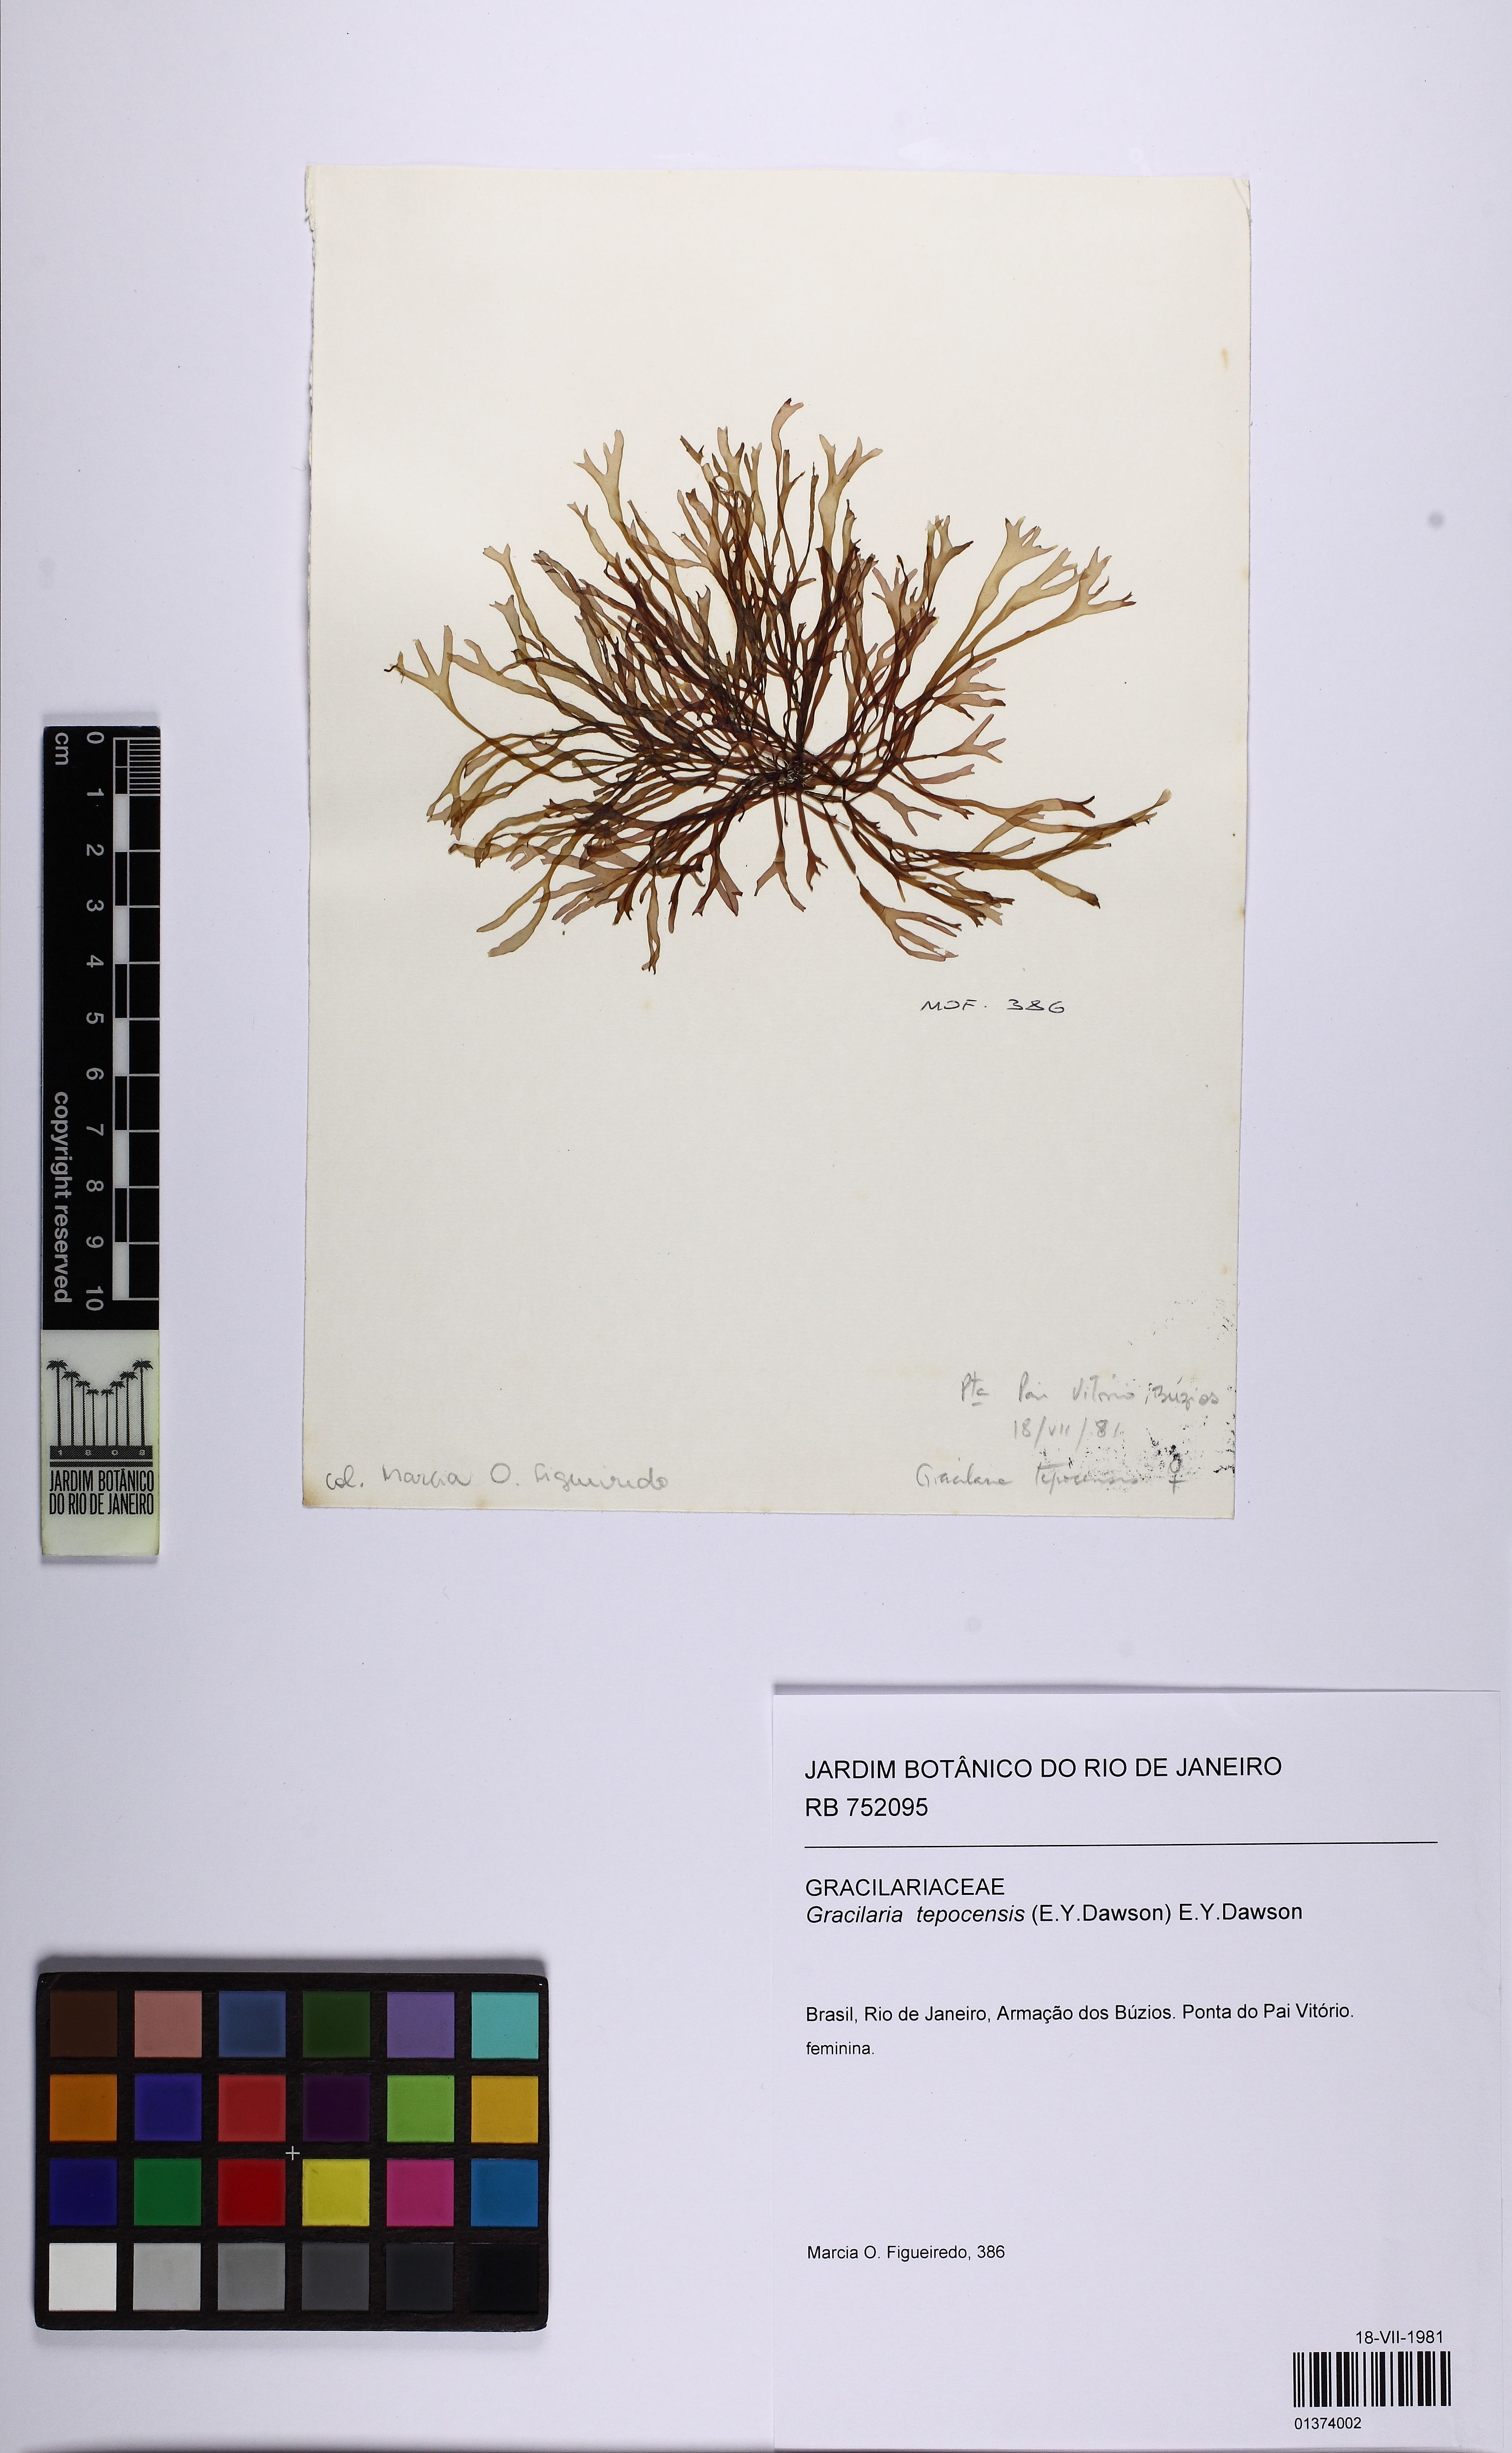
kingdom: Plantae
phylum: Rhodophyta
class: Florideophyceae
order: Rhodymeniales
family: Rhodymeniaceae
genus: Rhodymenia
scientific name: Rhodymenia Gracilaria tepocensis
